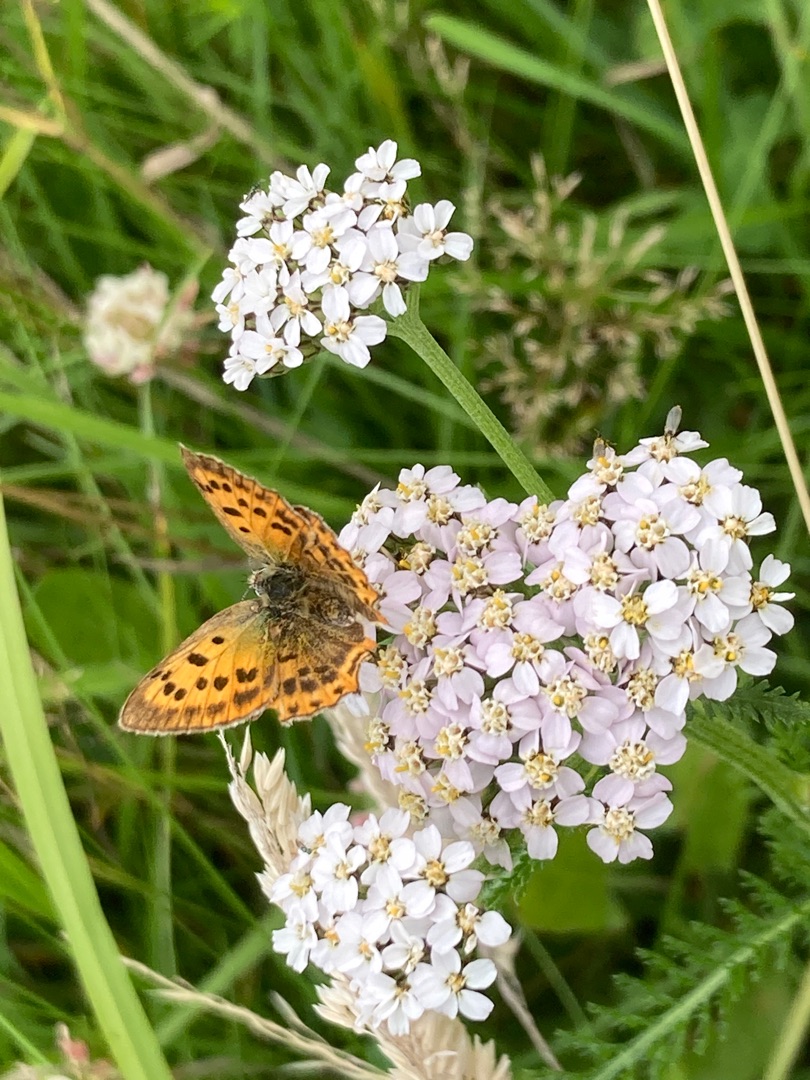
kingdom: Animalia
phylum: Arthropoda
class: Insecta
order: Lepidoptera
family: Lycaenidae
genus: Lycaena
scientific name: Lycaena virgaureae
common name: Dukatsommerfugl
